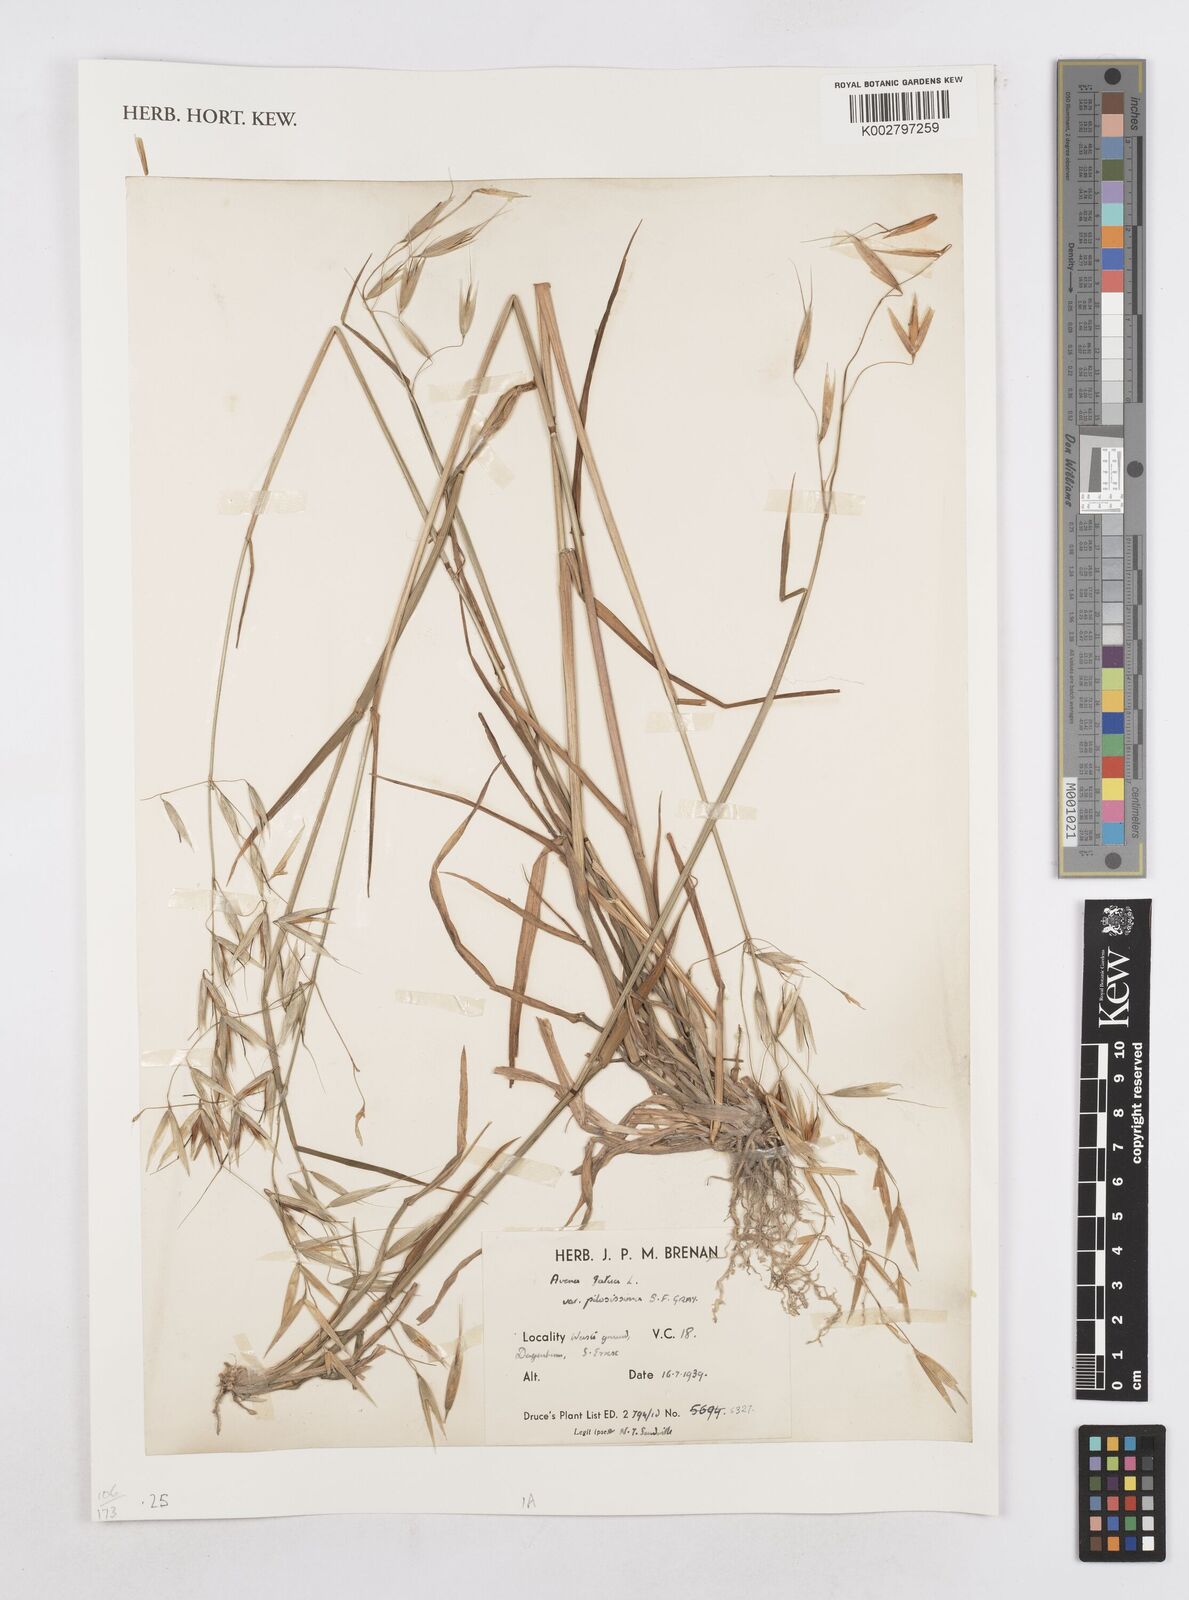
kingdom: Plantae
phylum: Tracheophyta
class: Liliopsida
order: Poales
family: Poaceae
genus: Avena
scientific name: Avena fatua
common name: Wild oat
